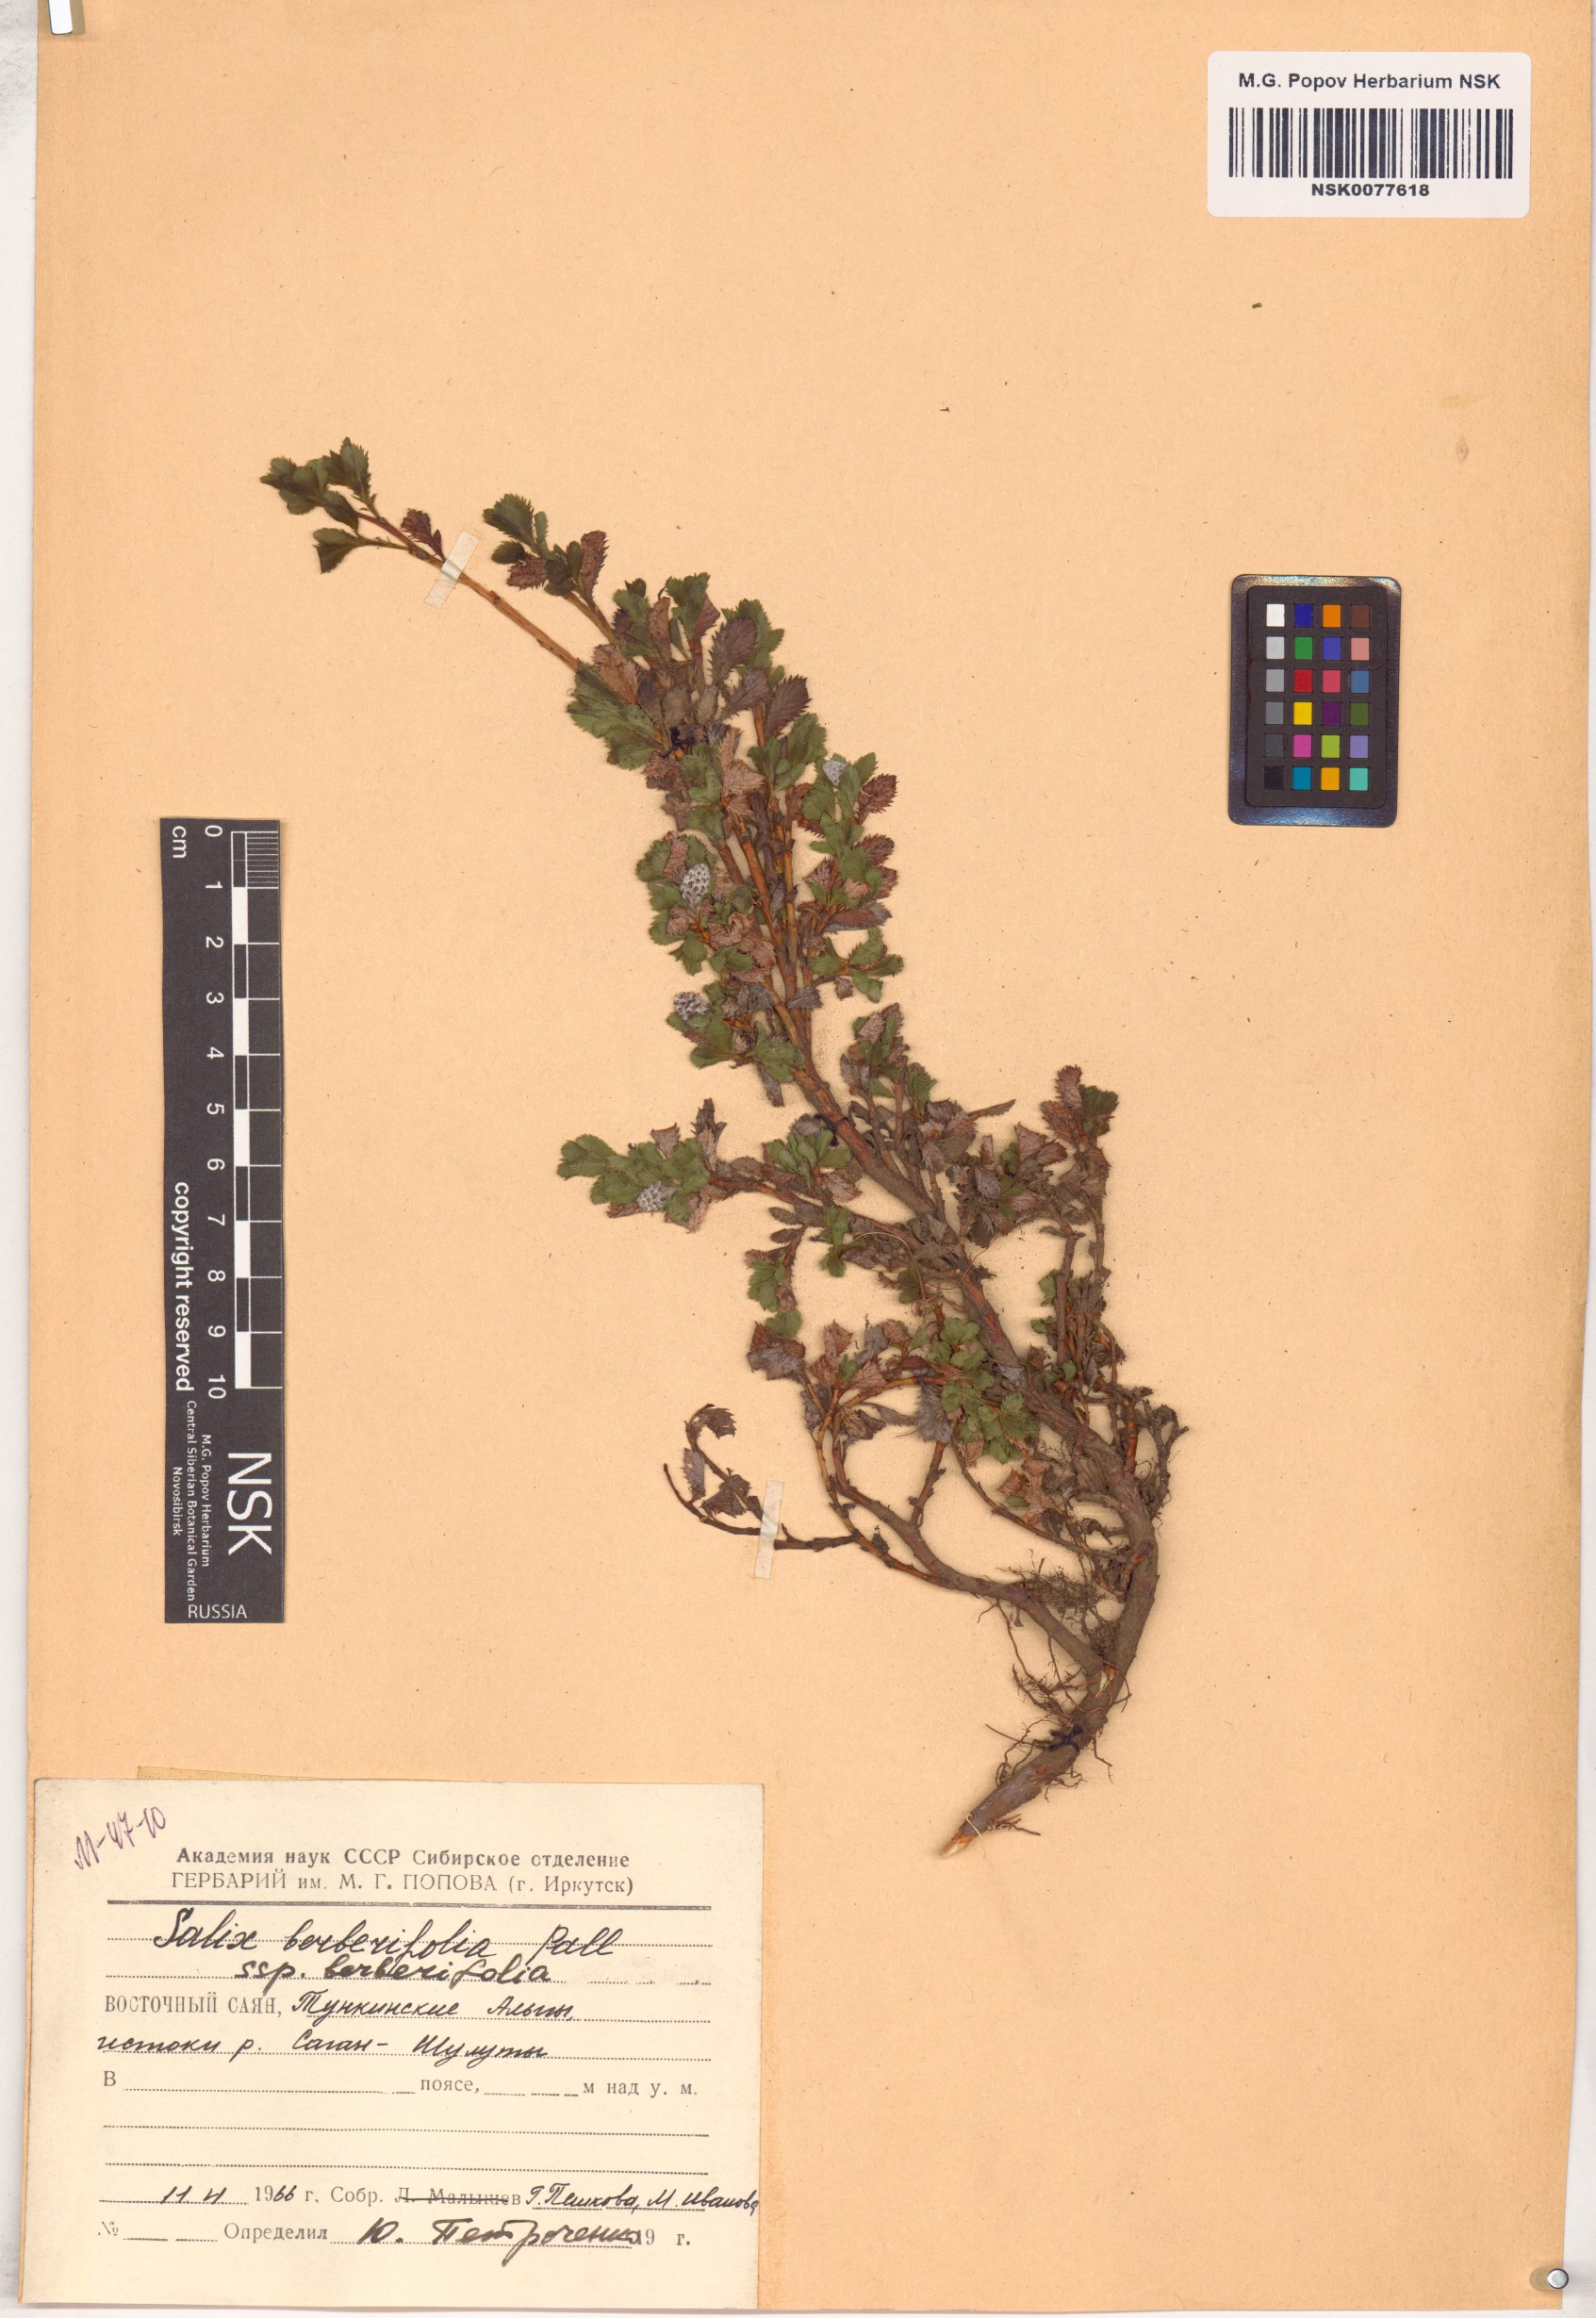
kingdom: Plantae
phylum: Tracheophyta
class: Magnoliopsida
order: Malpighiales
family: Salicaceae
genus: Salix
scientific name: Salix berberifolia
